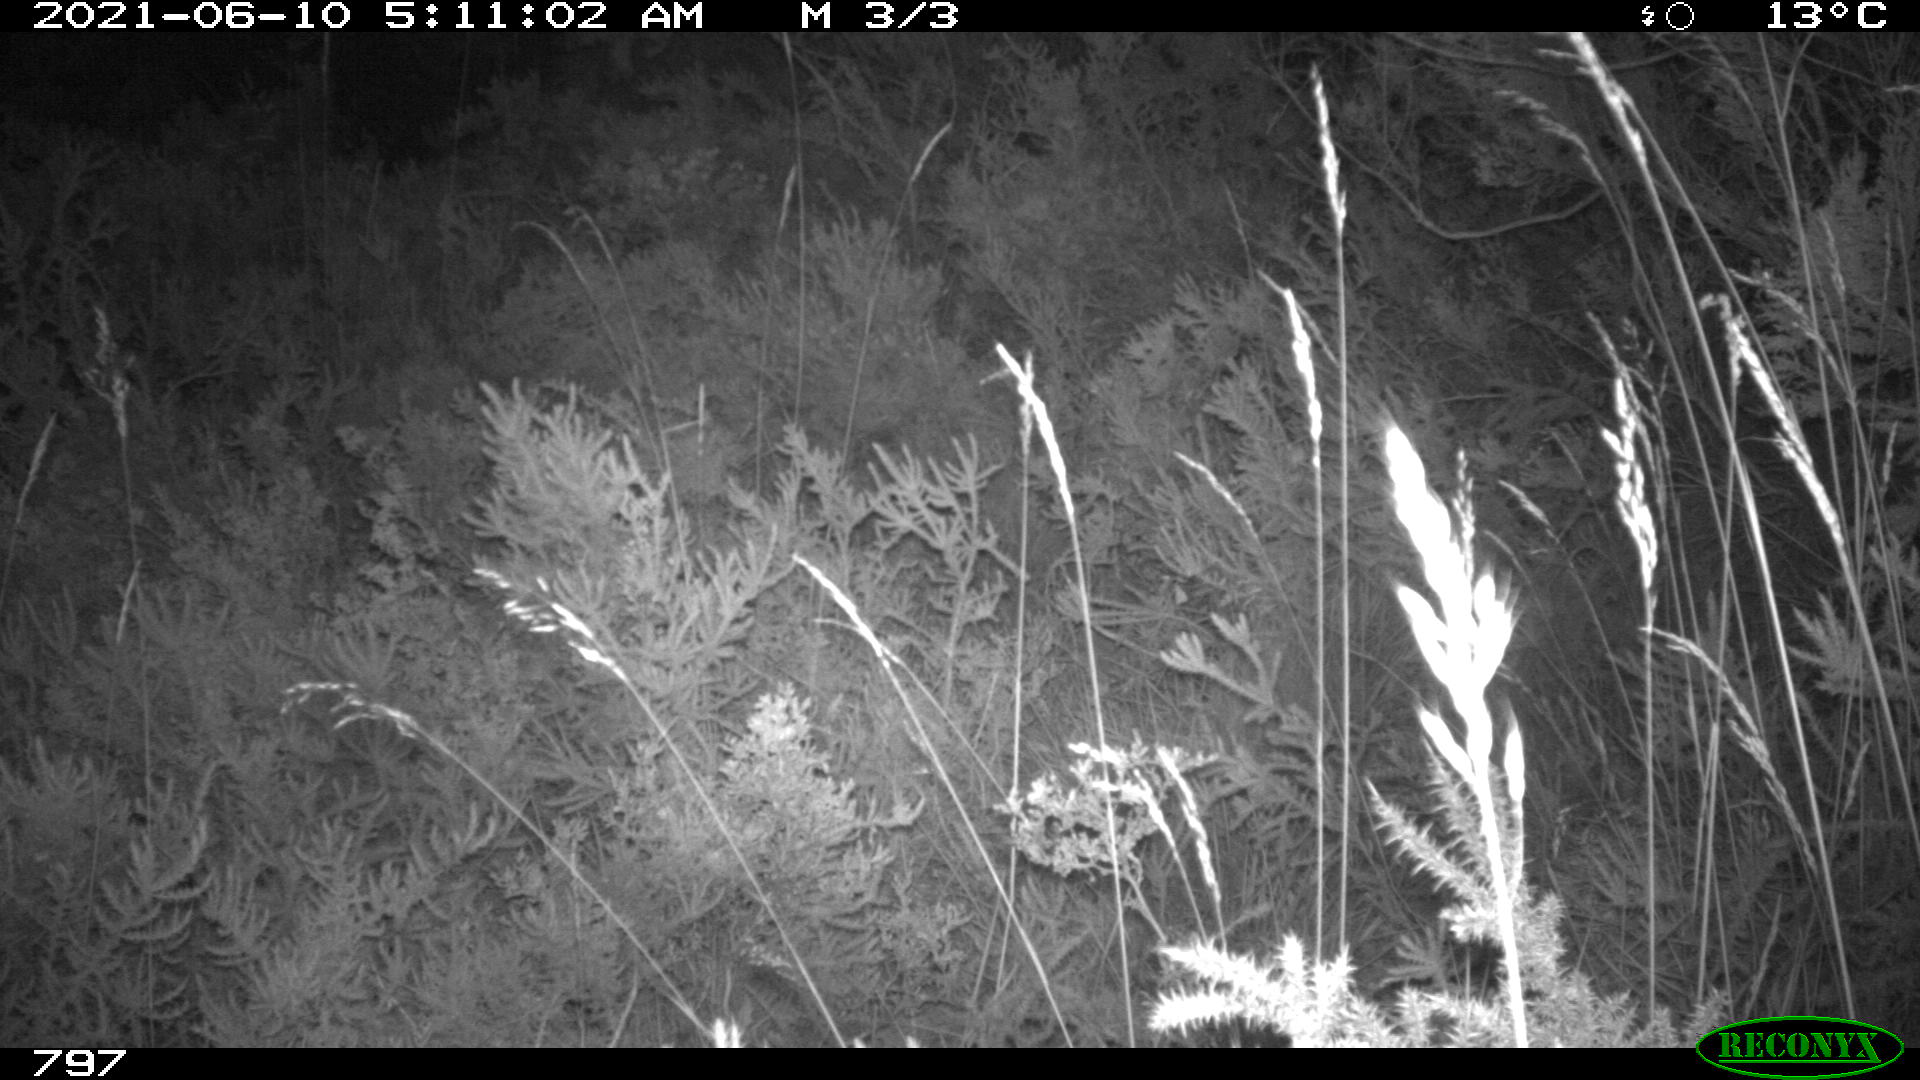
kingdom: Animalia
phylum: Chordata
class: Mammalia
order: Artiodactyla
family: Cervidae
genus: Capreolus
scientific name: Capreolus capreolus
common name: Western roe deer
